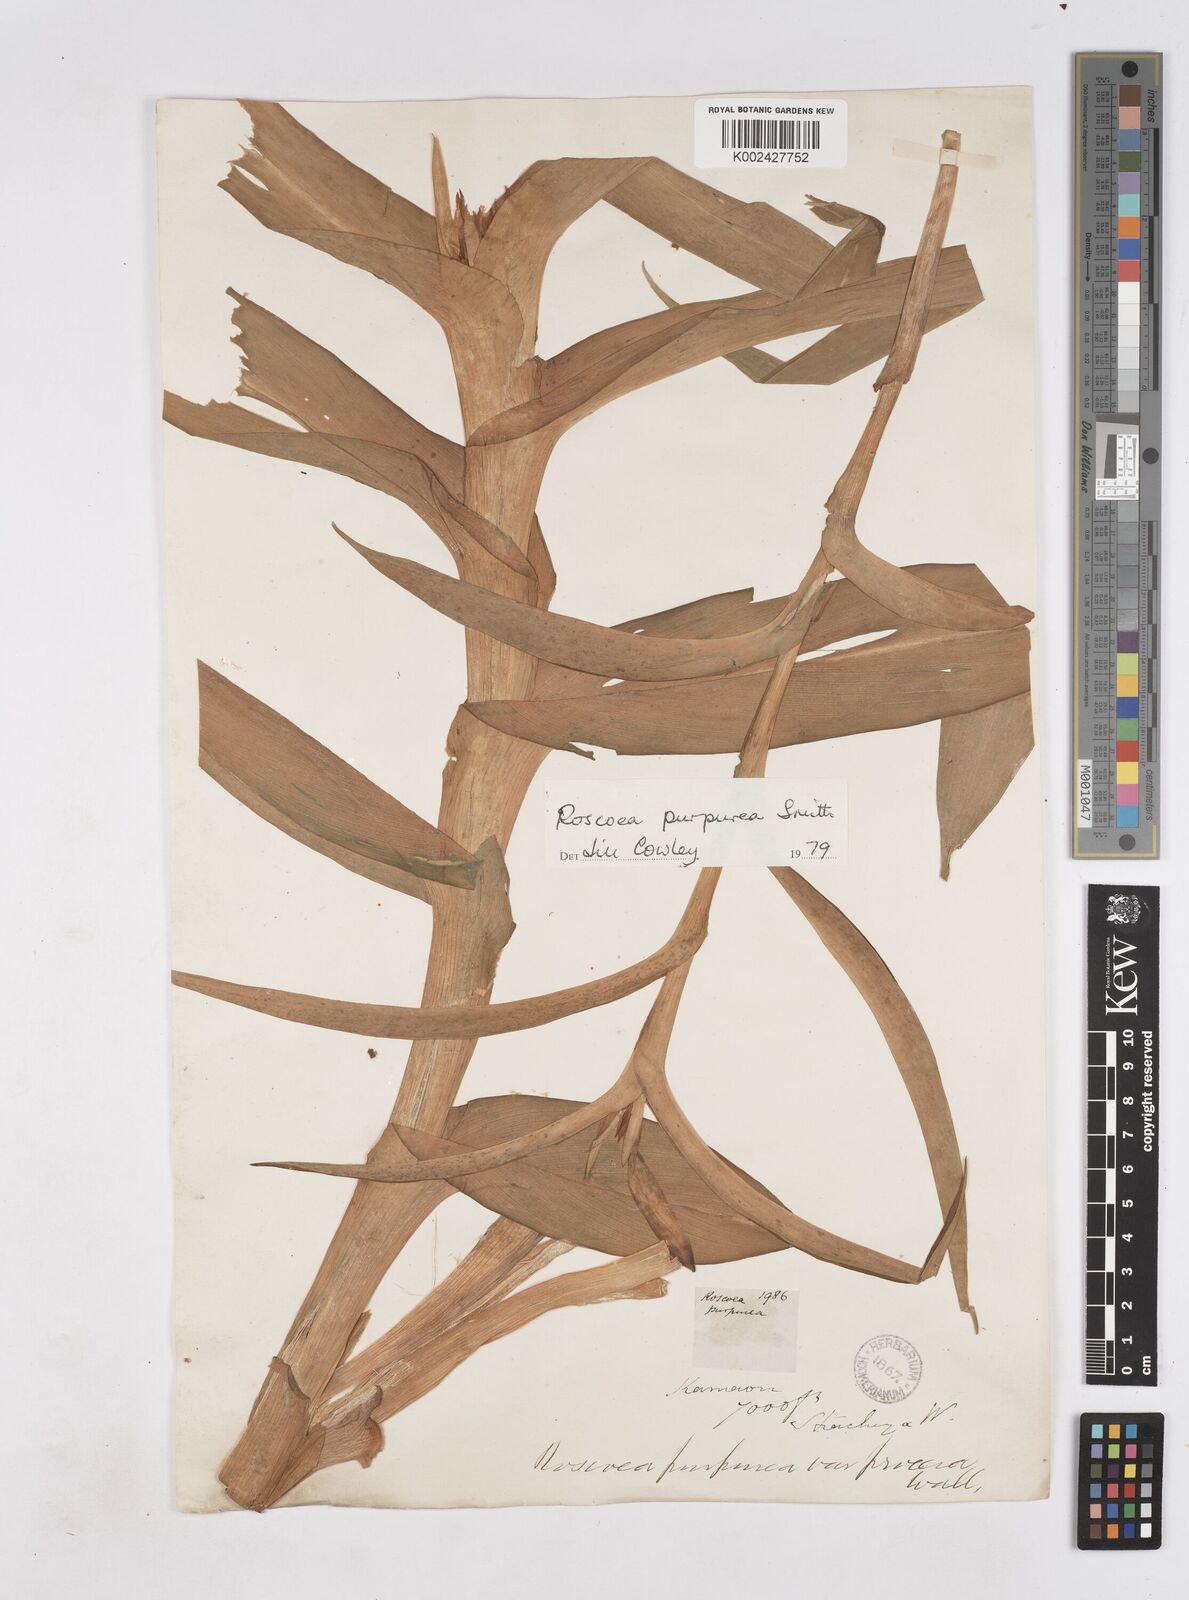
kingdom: Plantae
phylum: Tracheophyta
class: Liliopsida
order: Zingiberales
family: Zingiberaceae
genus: Roscoea
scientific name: Roscoea purpurea
